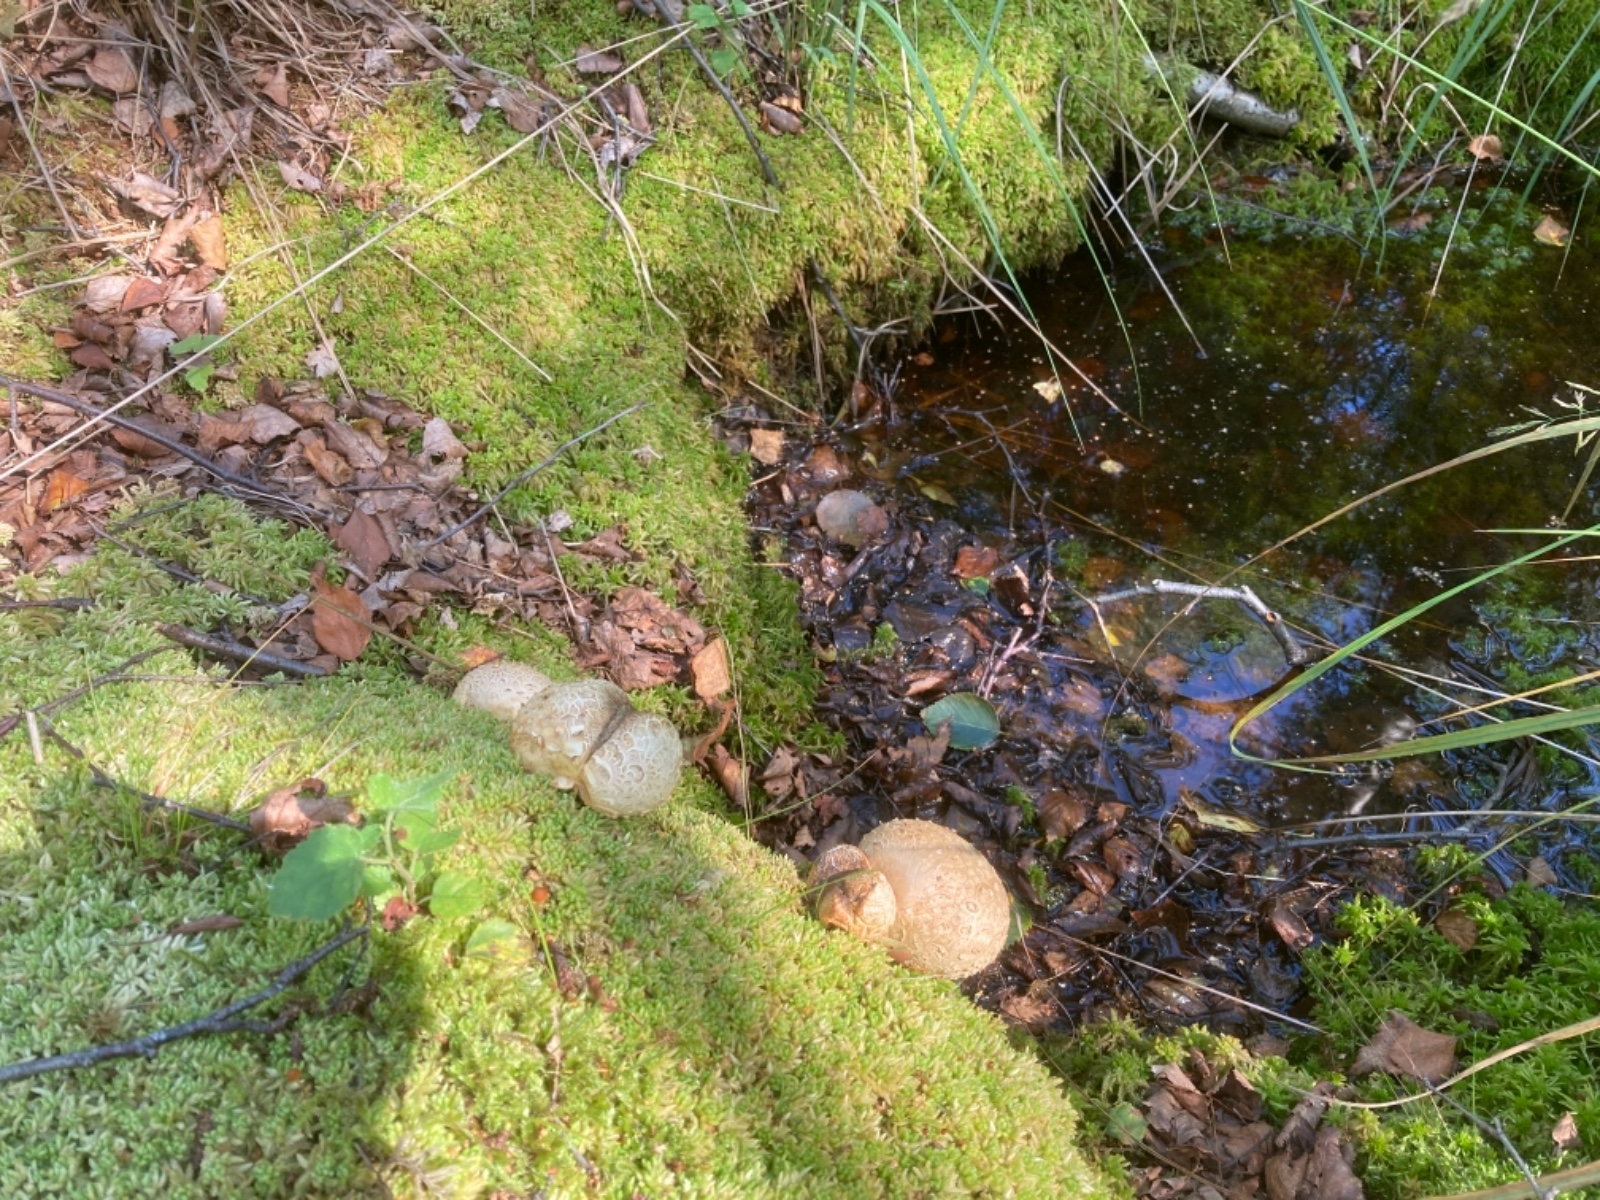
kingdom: Fungi
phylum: Basidiomycota
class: Agaricomycetes
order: Boletales
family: Sclerodermataceae
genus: Scleroderma
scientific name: Scleroderma citrinum
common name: almindelig bruskbold
